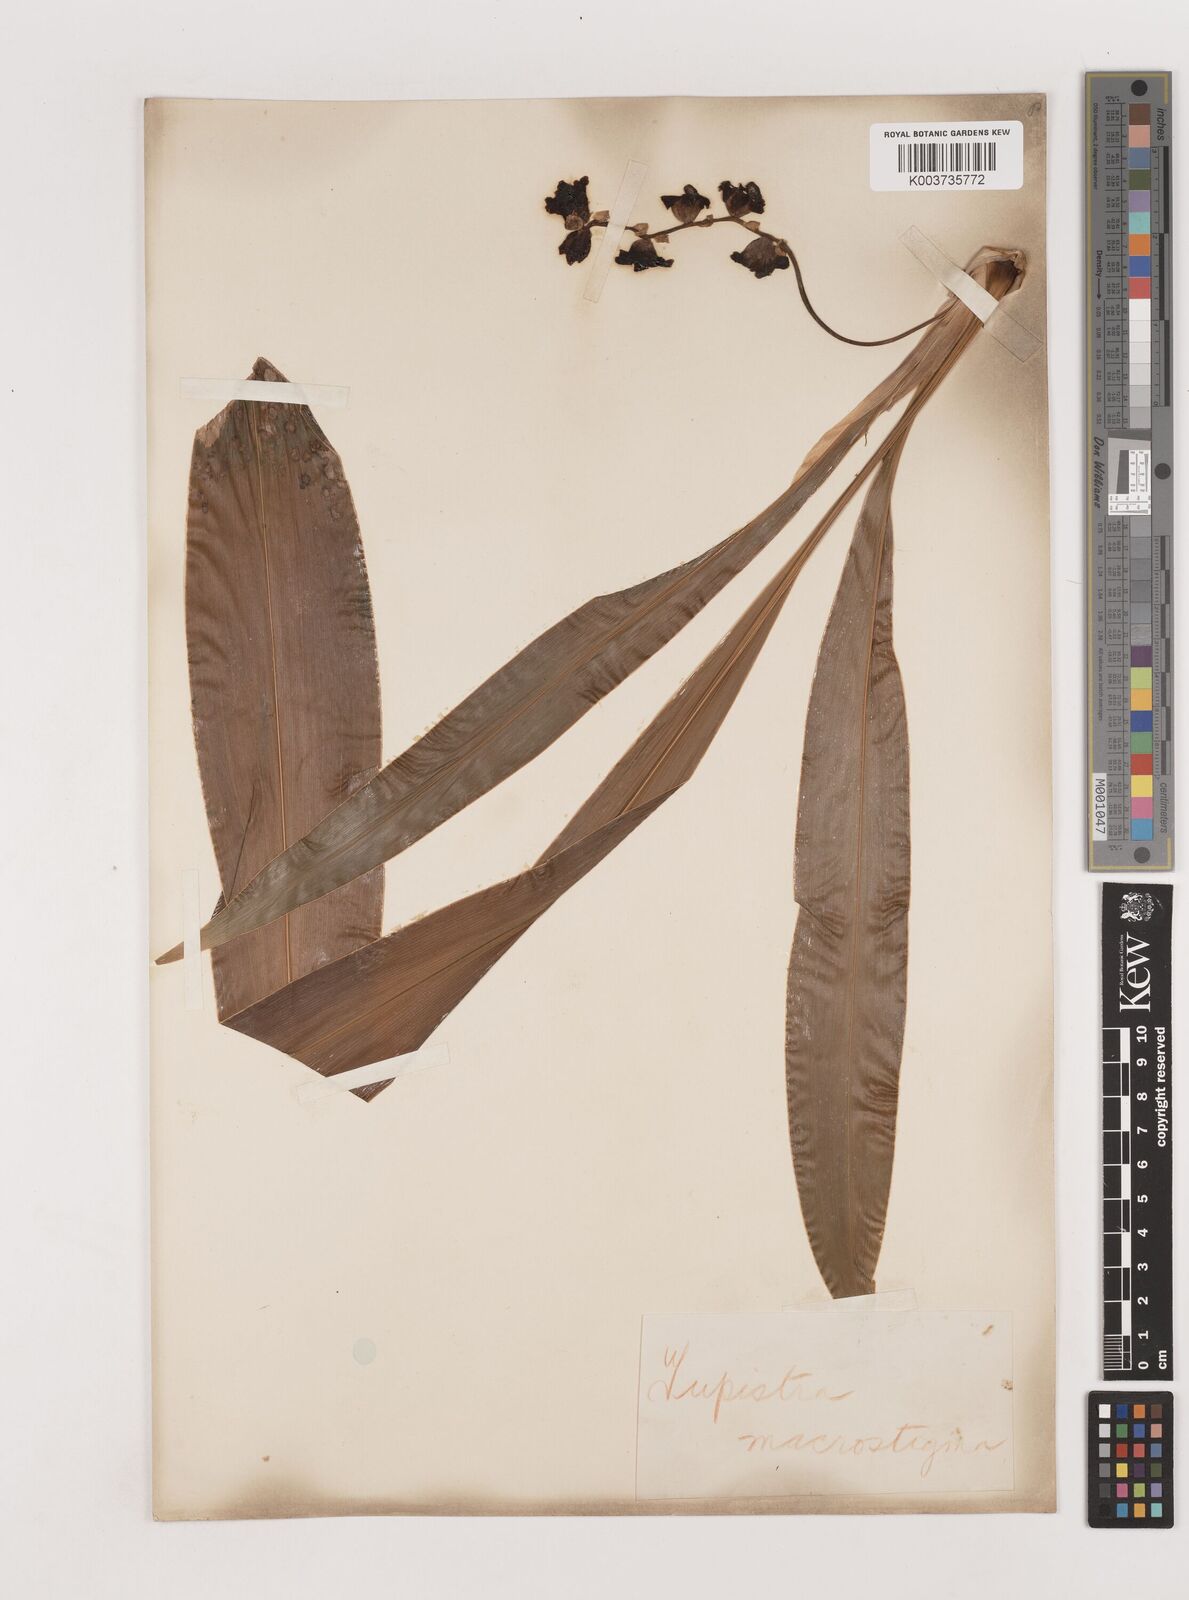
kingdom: Plantae
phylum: Tracheophyta
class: Liliopsida
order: Asparagales
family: Asparagaceae
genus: Tupistra
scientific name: Tupistra tupistroides
